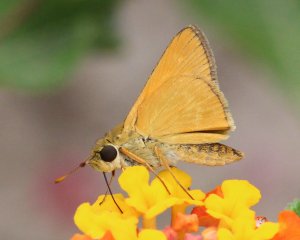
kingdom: Animalia
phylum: Arthropoda
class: Insecta
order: Lepidoptera
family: Hesperiidae
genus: Wallengrenia
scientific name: Wallengrenia otho
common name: Southern Broken-Dash
